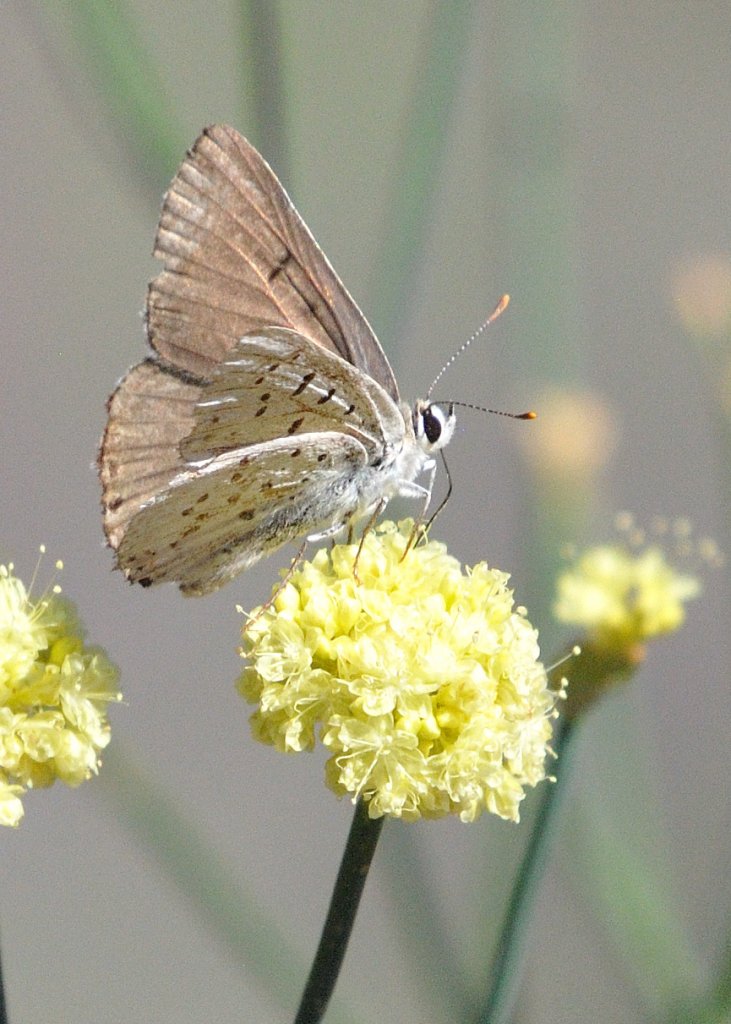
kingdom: Animalia
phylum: Arthropoda
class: Insecta
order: Lepidoptera
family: Lycaenidae
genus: Lycaena
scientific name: Lycaena xanthoides
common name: Great Copper
